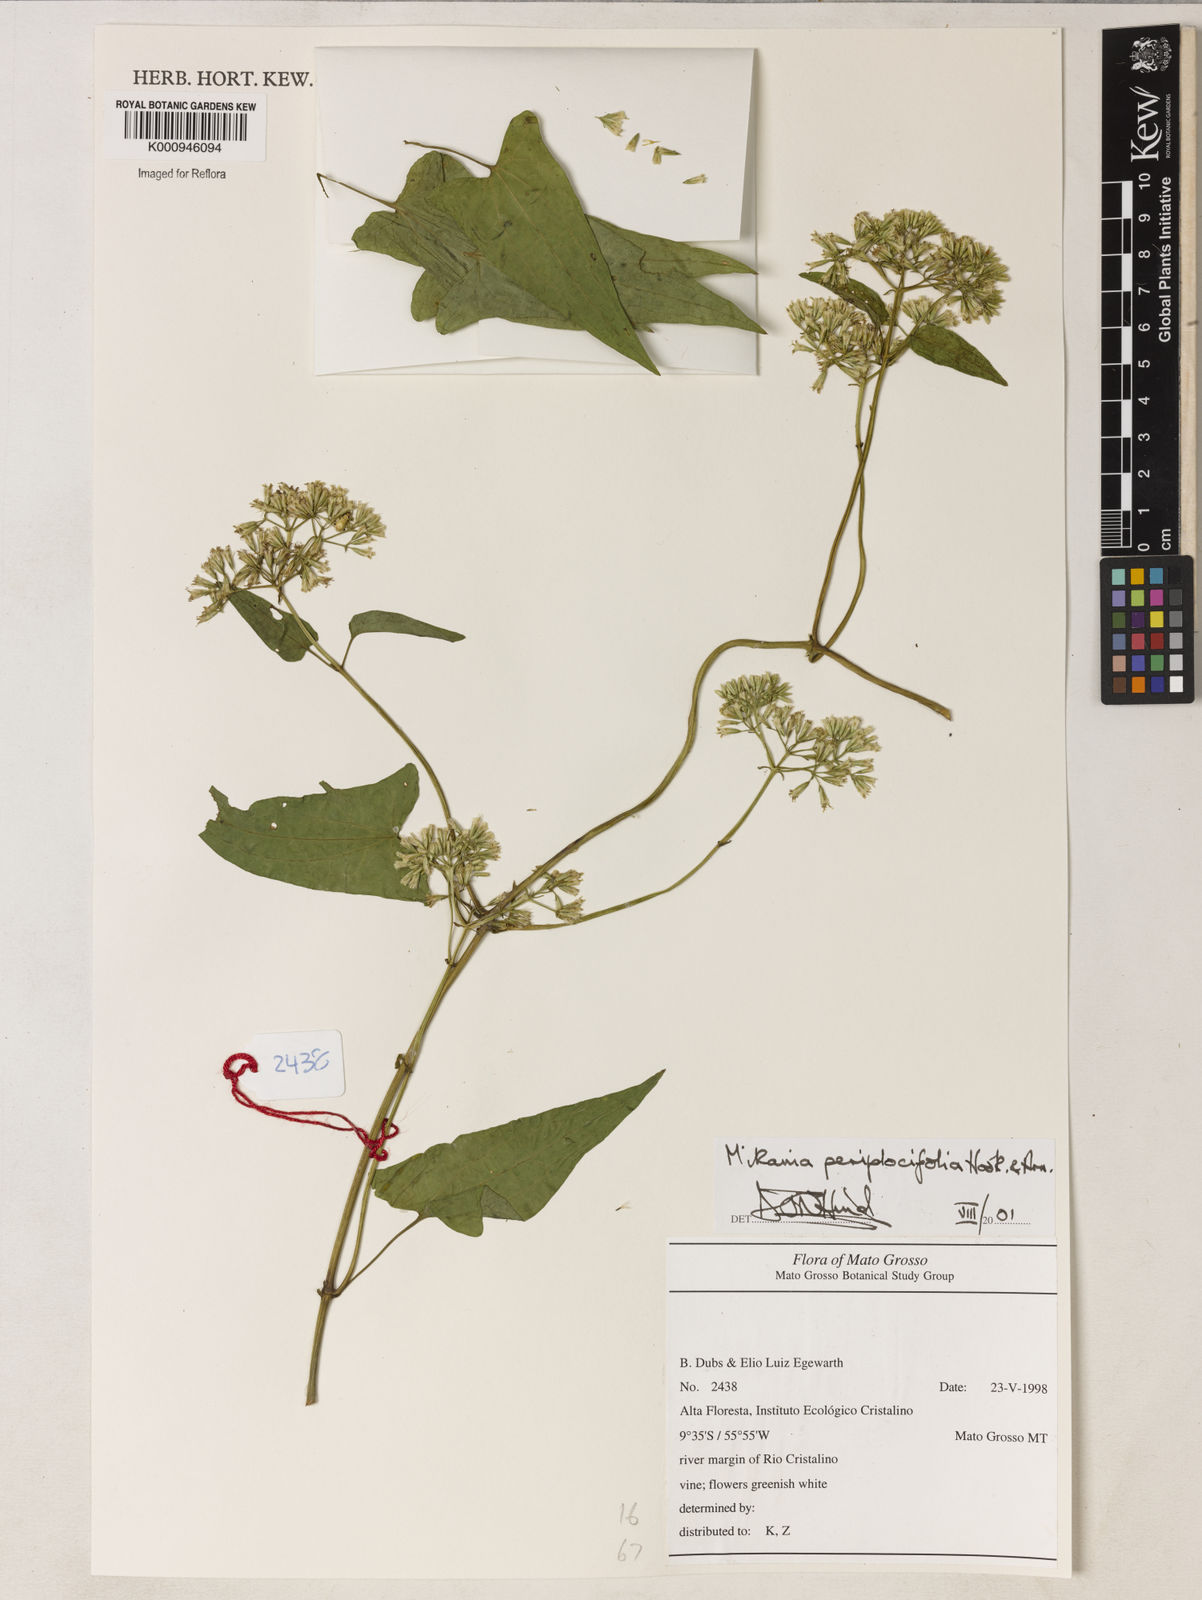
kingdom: Plantae
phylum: Tracheophyta
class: Magnoliopsida
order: Asterales
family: Asteraceae
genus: Mikania
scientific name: Mikania periplocifolia
